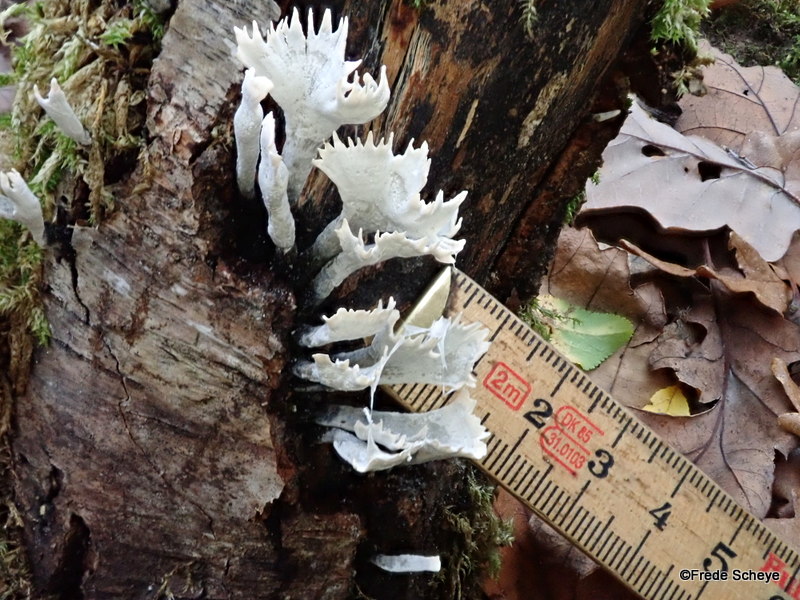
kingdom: Fungi
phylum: Ascomycota
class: Sordariomycetes
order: Xylariales
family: Xylariaceae
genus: Xylaria
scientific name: Xylaria hypoxylon
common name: grenet stødsvamp
